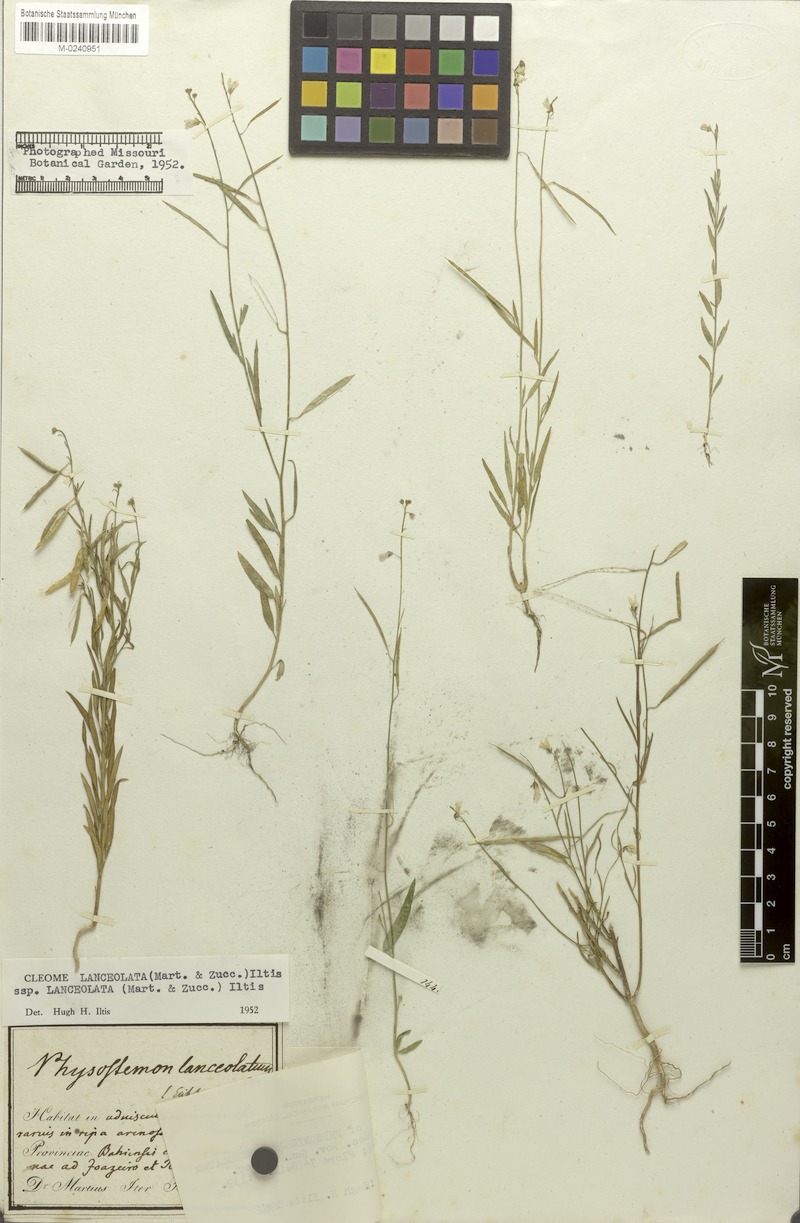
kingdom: Plantae
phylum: Tracheophyta
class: Magnoliopsida
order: Brassicales
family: Cleomaceae
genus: Physostemon
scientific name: Physostemon lanceolatus
